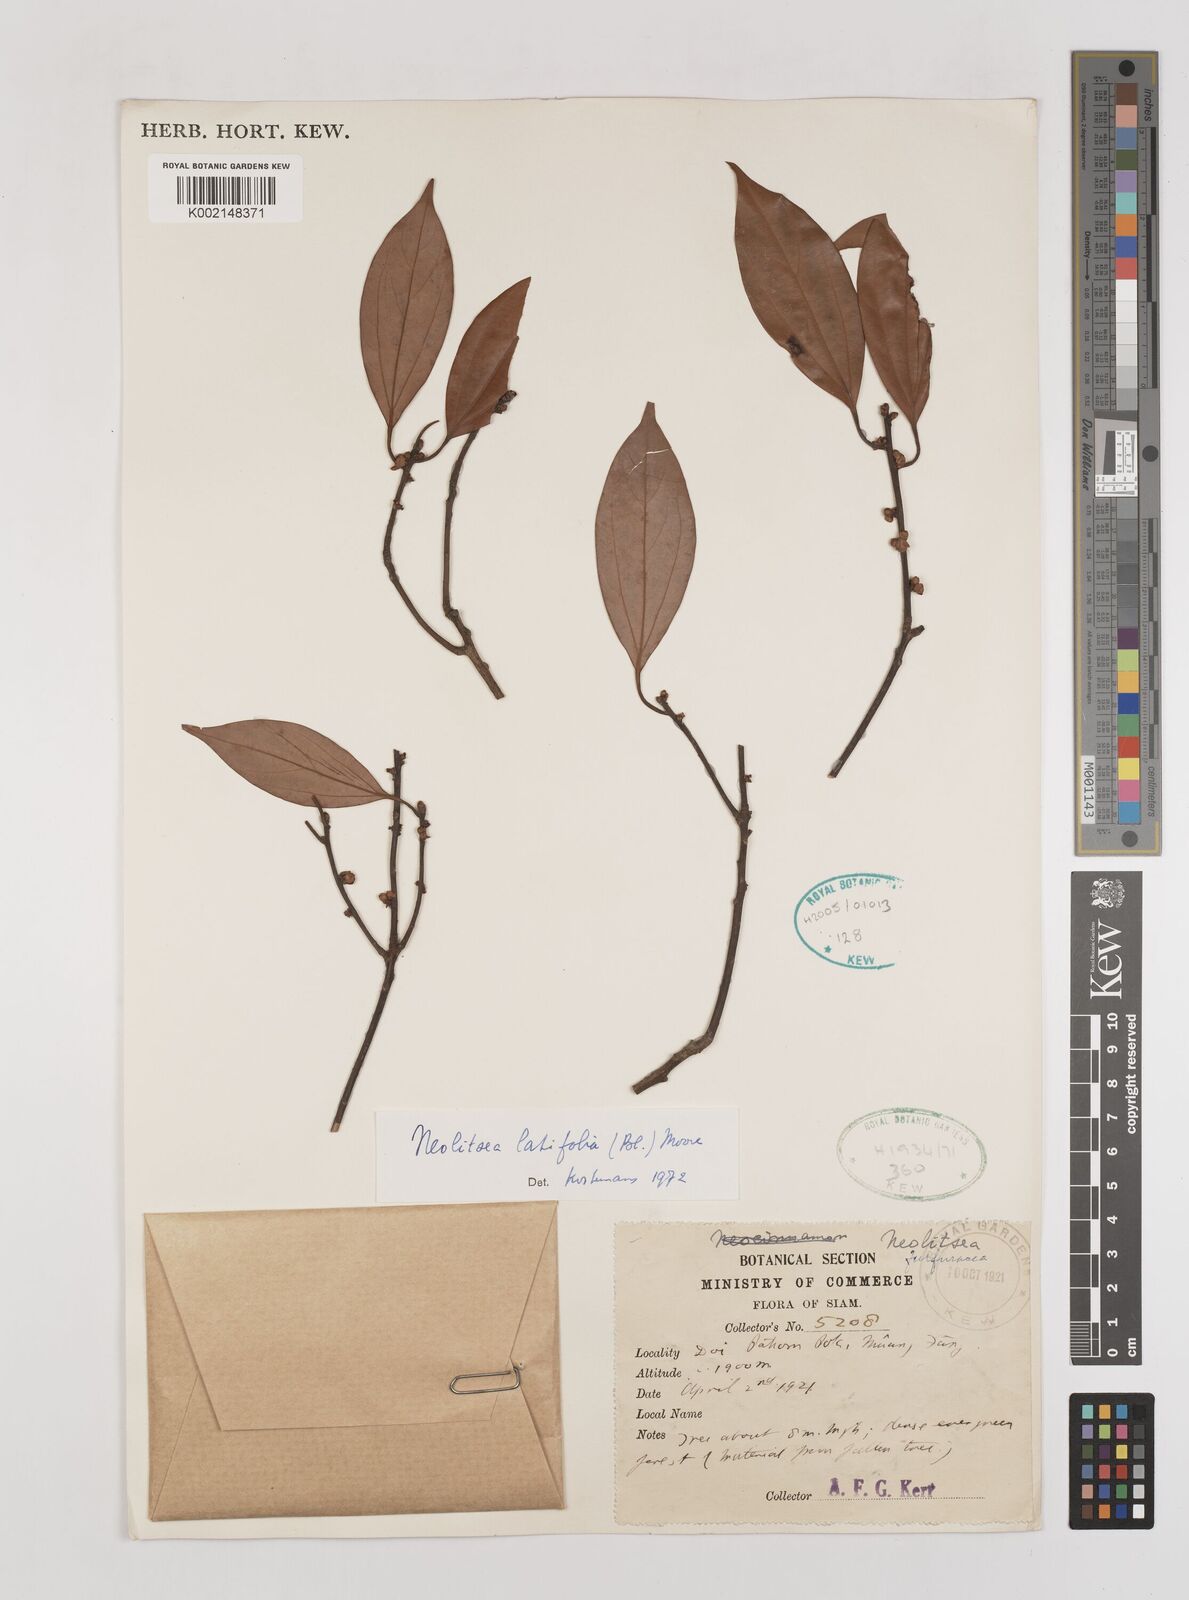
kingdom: Plantae
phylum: Tracheophyta
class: Magnoliopsida
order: Laurales
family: Lauraceae
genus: Neolitsea
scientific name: Neolitsea latifolia
